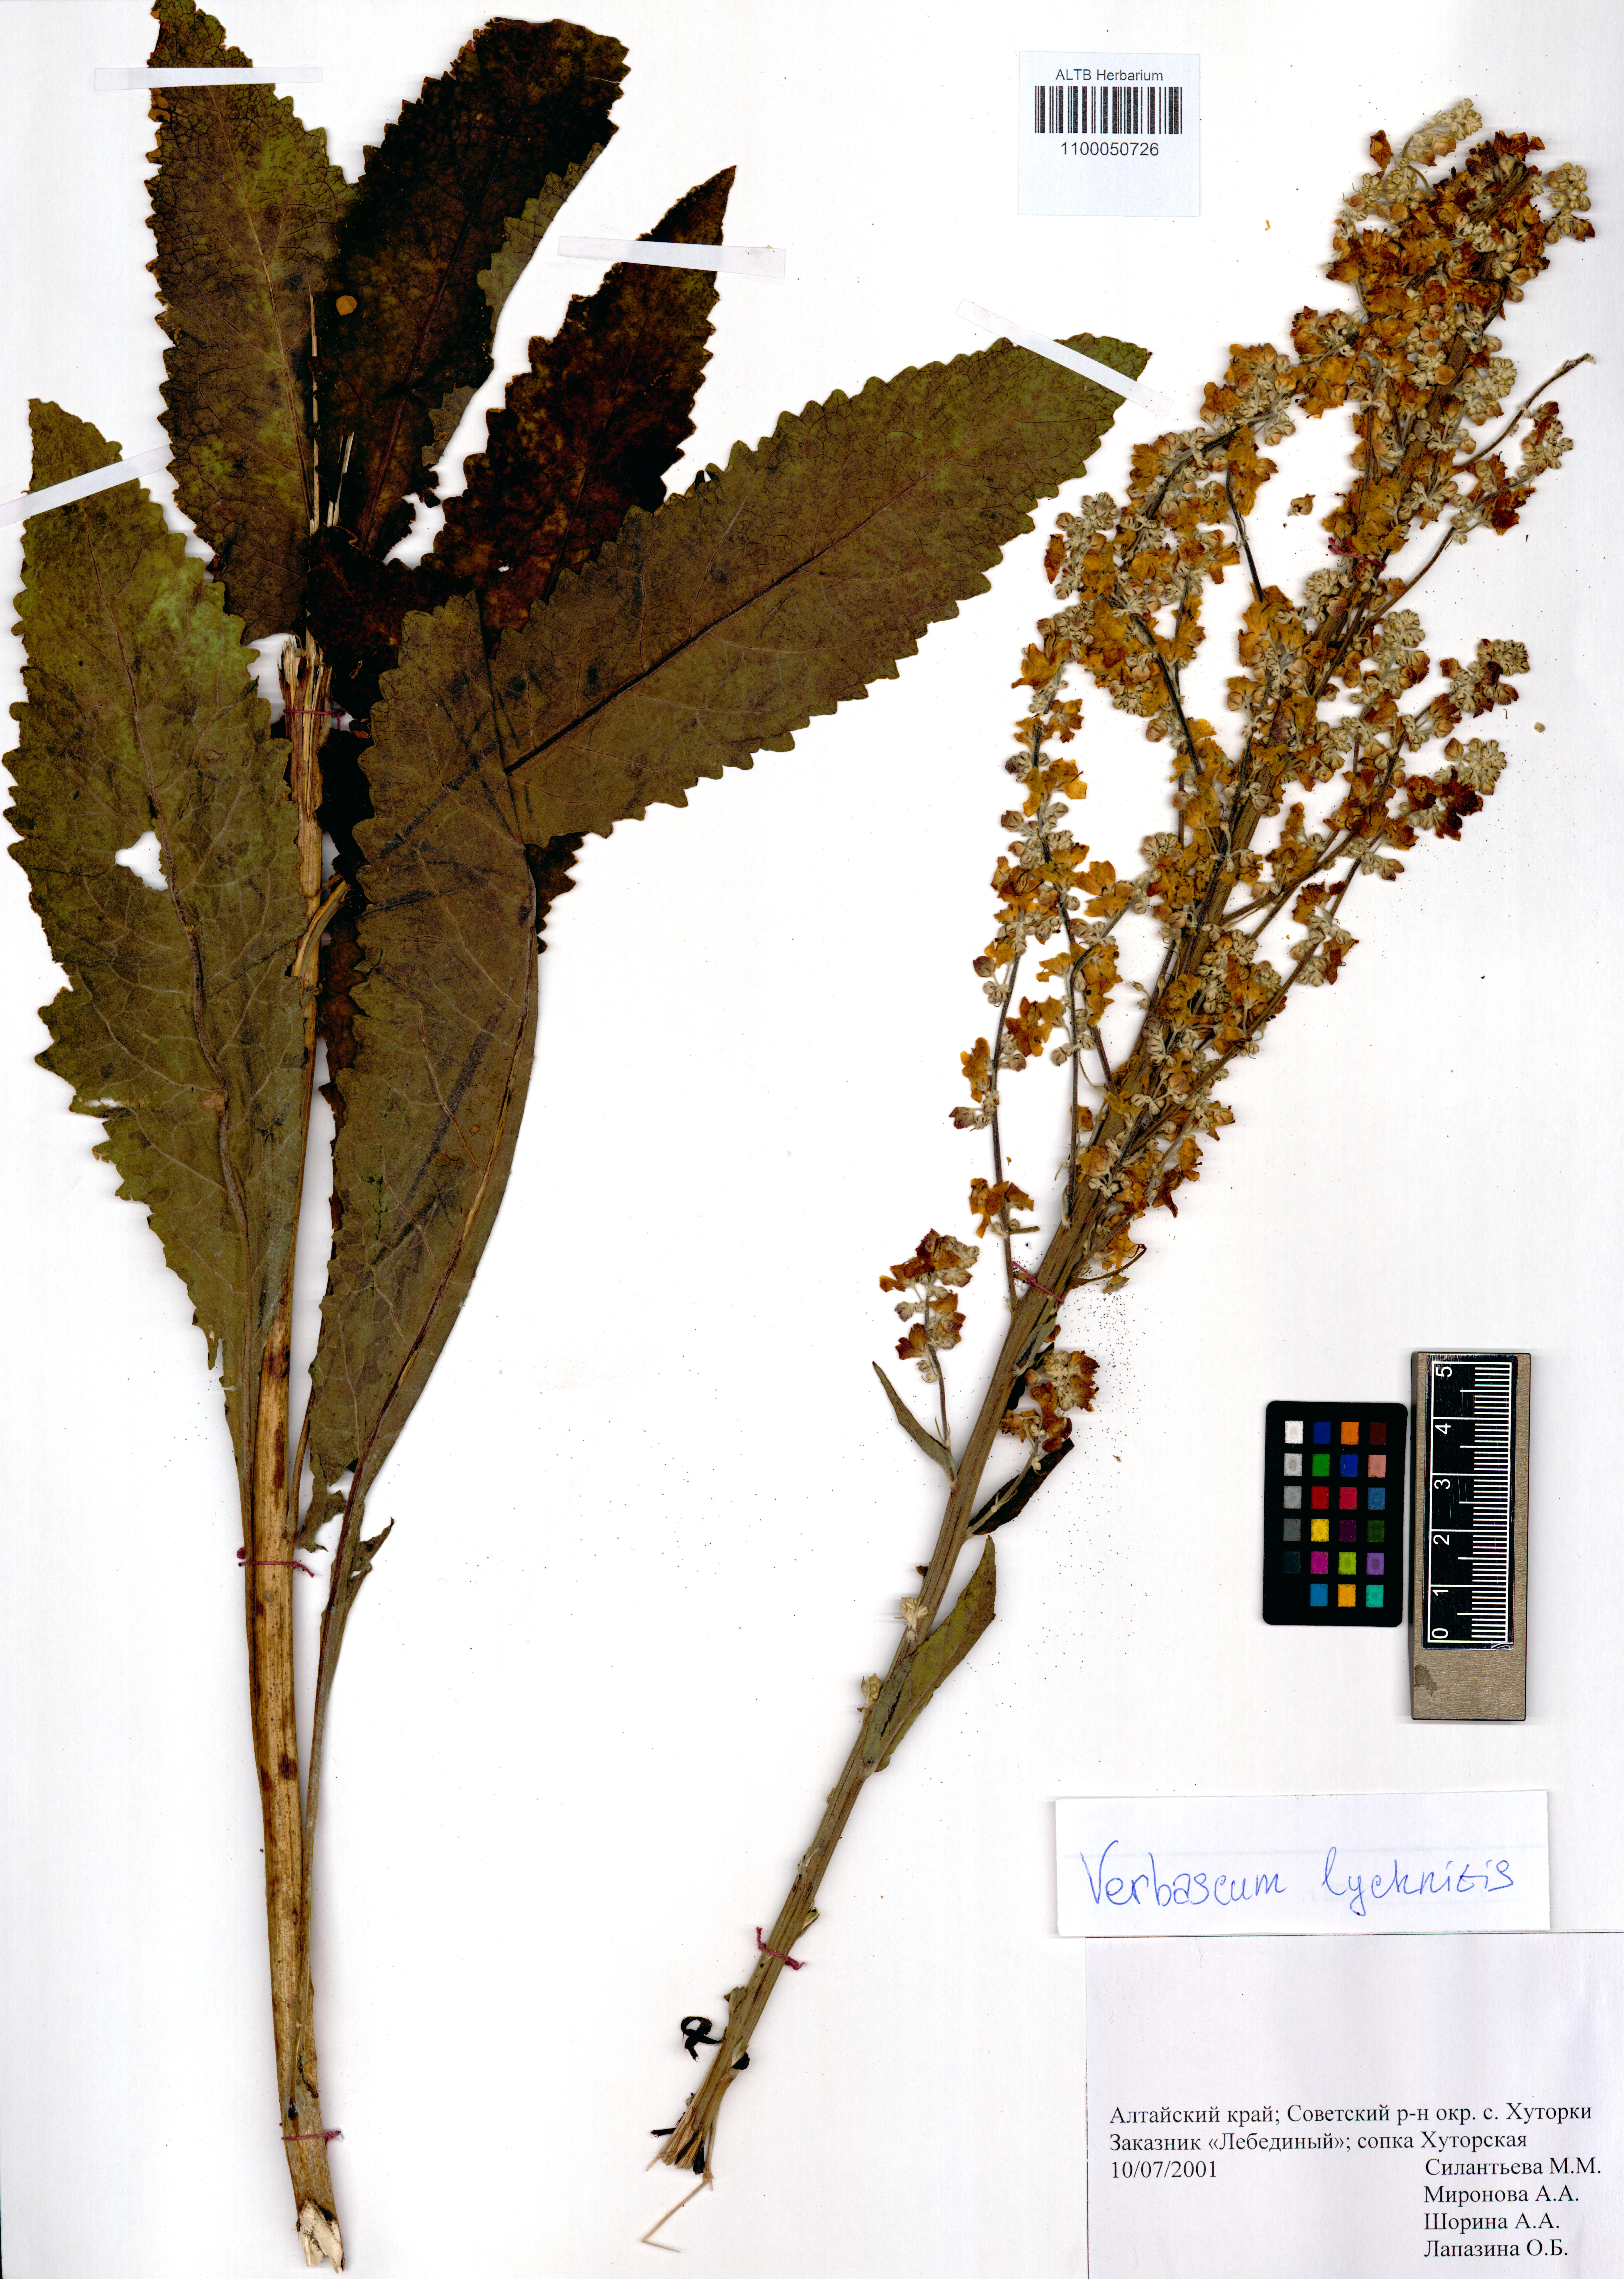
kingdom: Plantae
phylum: Tracheophyta
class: Magnoliopsida
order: Lamiales
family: Scrophulariaceae
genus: Verbascum
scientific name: Verbascum lychnitis
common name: White mullein
